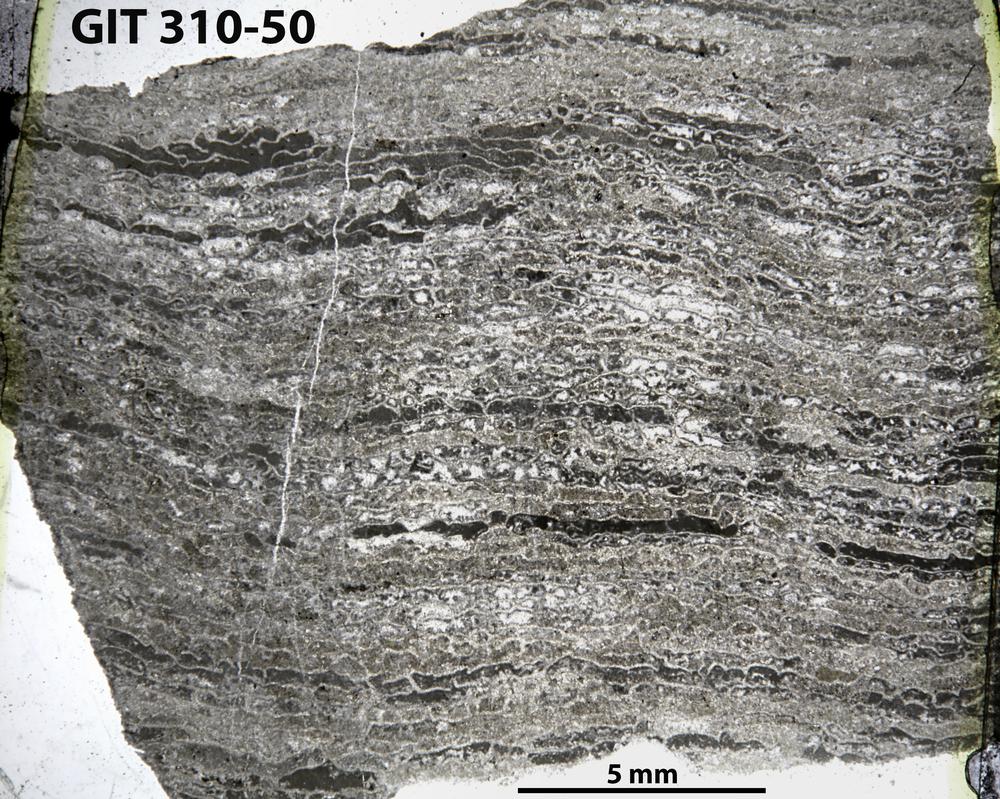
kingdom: Animalia
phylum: Porifera
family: Clathrodictyidae
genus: Clathrodictyon
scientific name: Clathrodictyon
